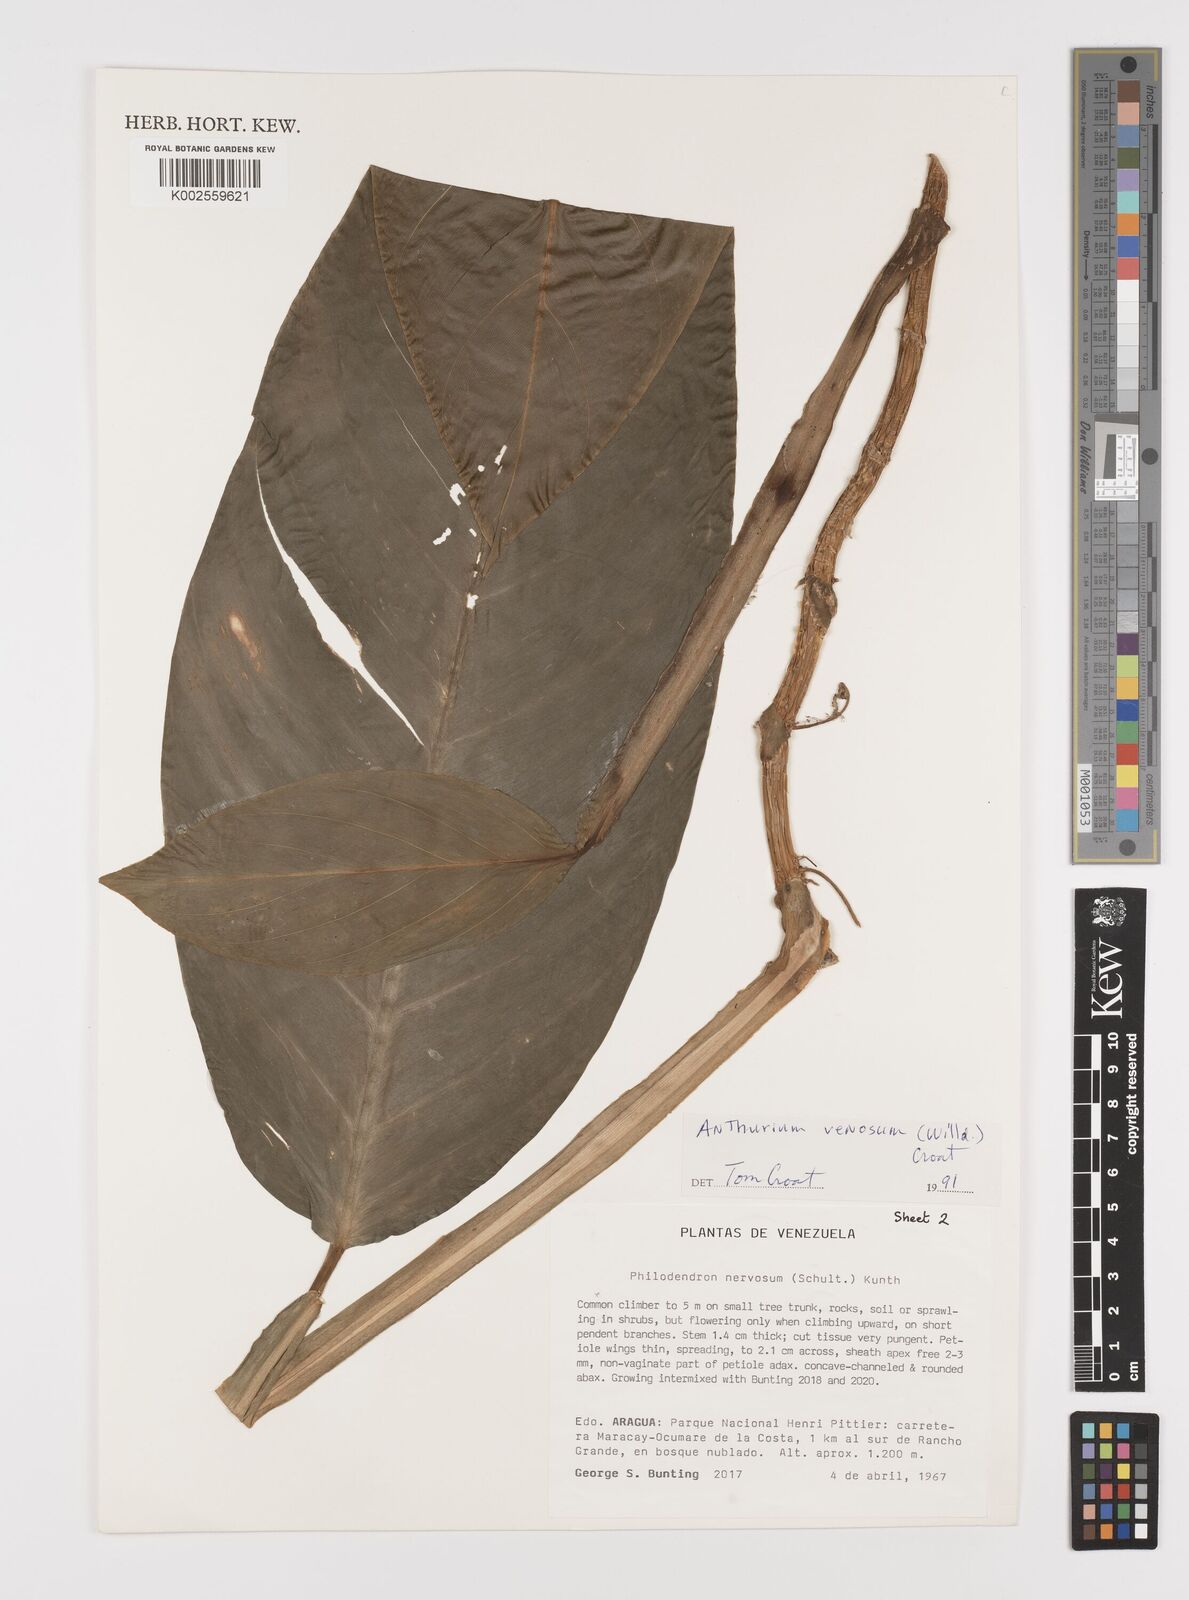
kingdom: Plantae
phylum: Tracheophyta
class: Liliopsida
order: Alismatales
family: Araceae
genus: Philodendron
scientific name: Philodendron venosum
